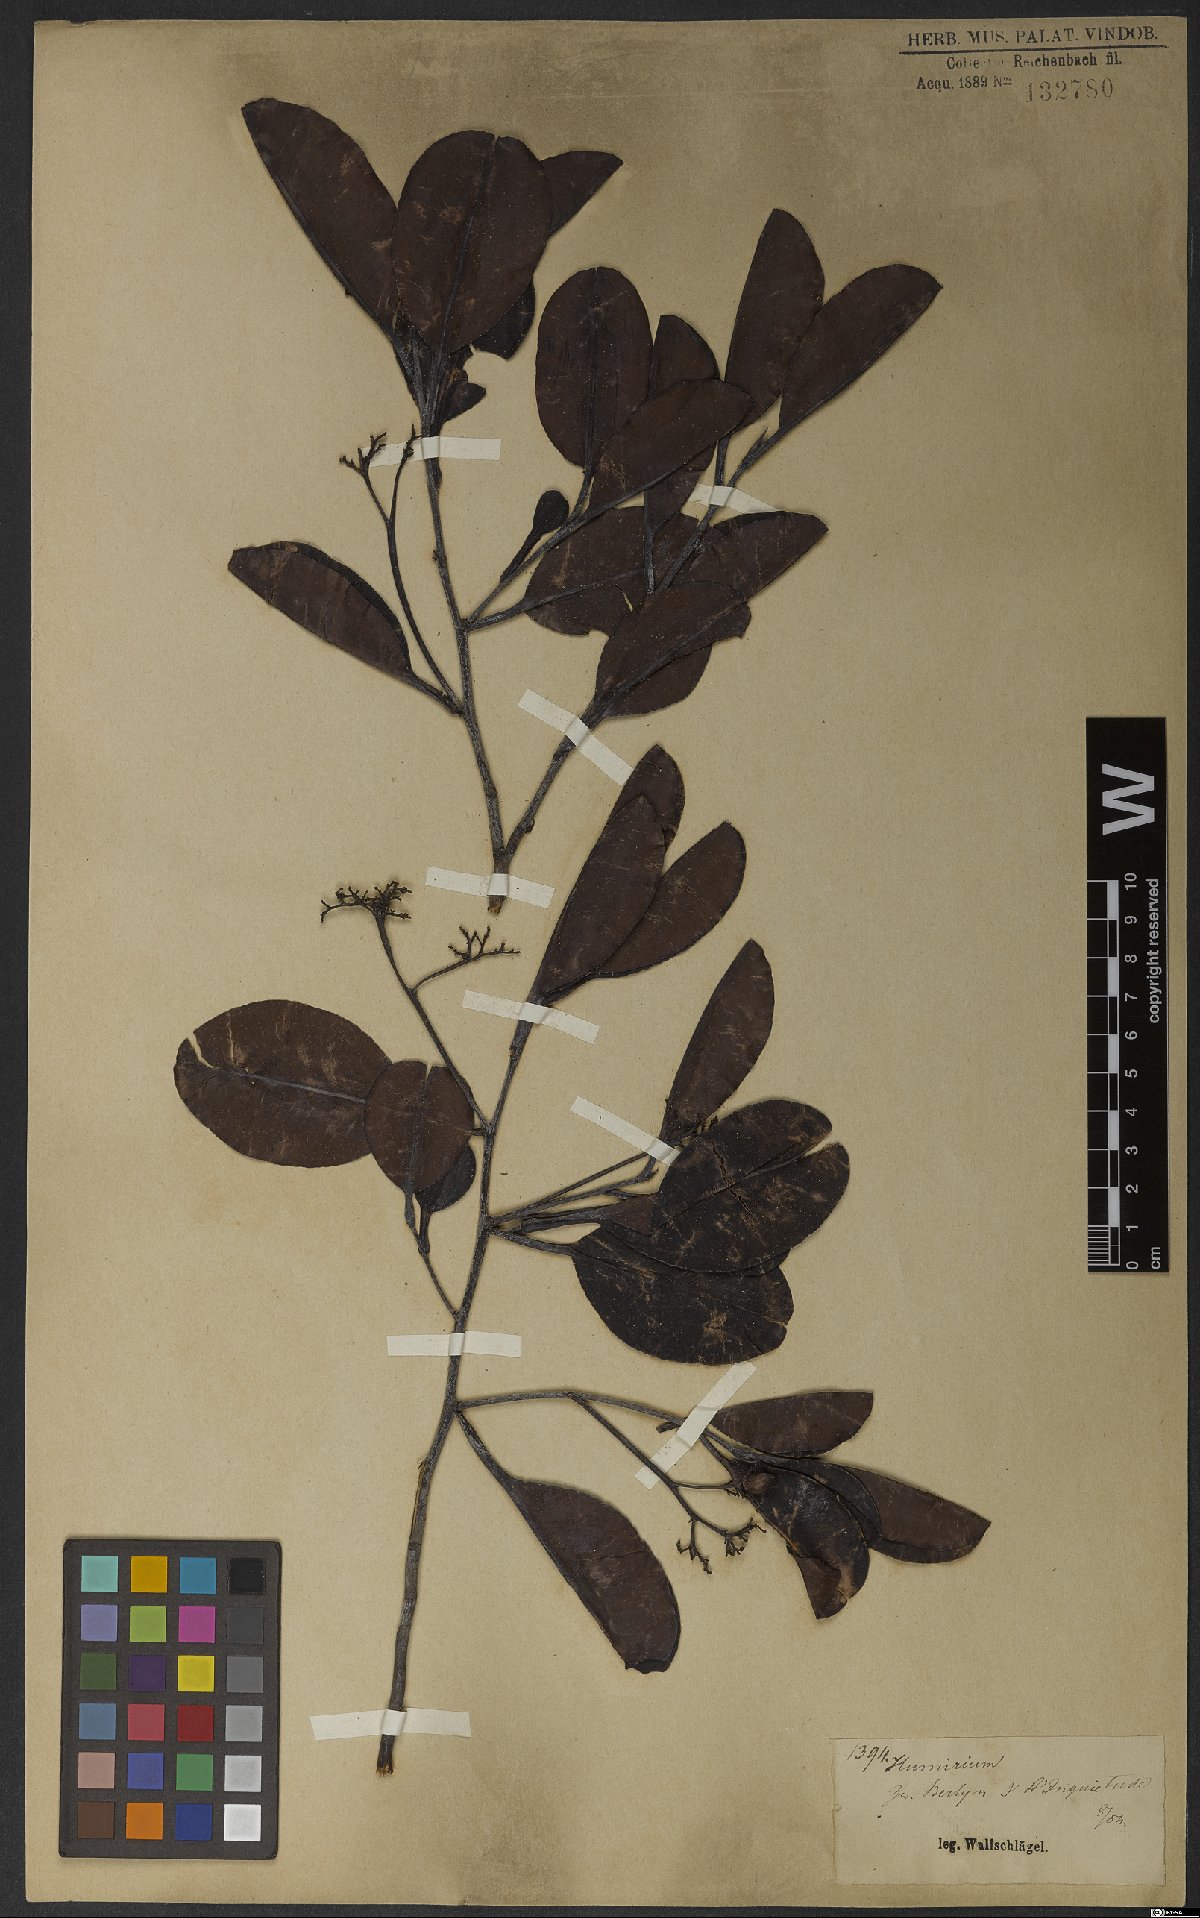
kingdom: Plantae
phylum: Tracheophyta
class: Magnoliopsida
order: Malpighiales
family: Humiriaceae
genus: Humiria
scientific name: Humiria
